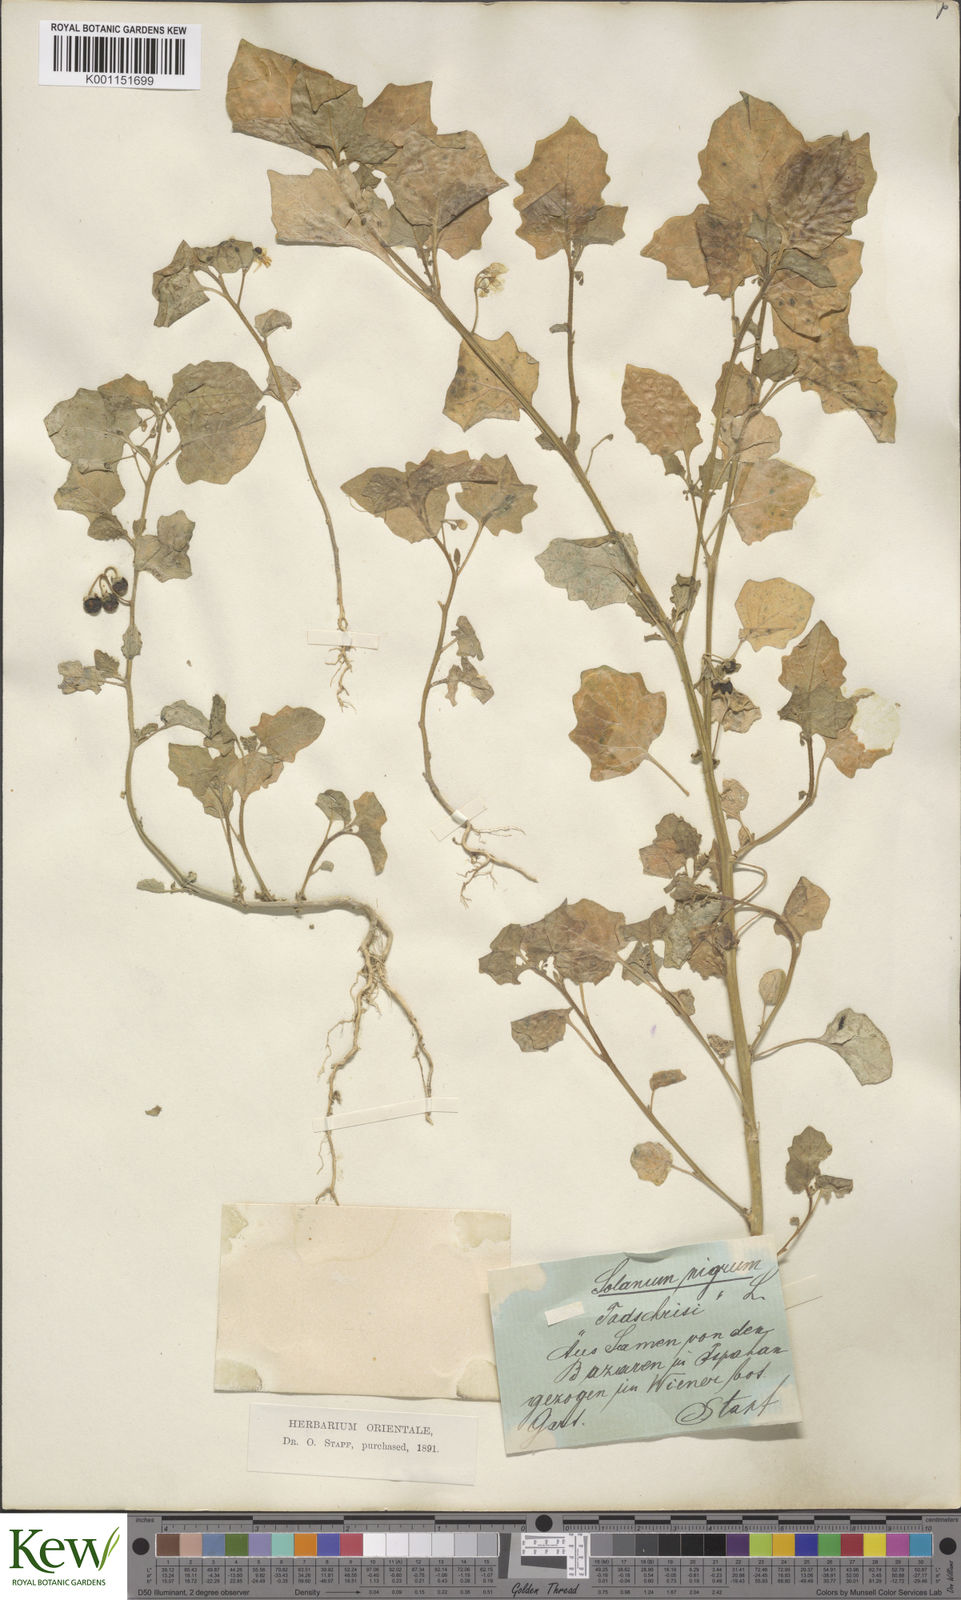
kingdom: Plantae
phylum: Tracheophyta
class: Magnoliopsida
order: Solanales
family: Solanaceae
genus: Solanum
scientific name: Solanum nigrum
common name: Black nightshade
